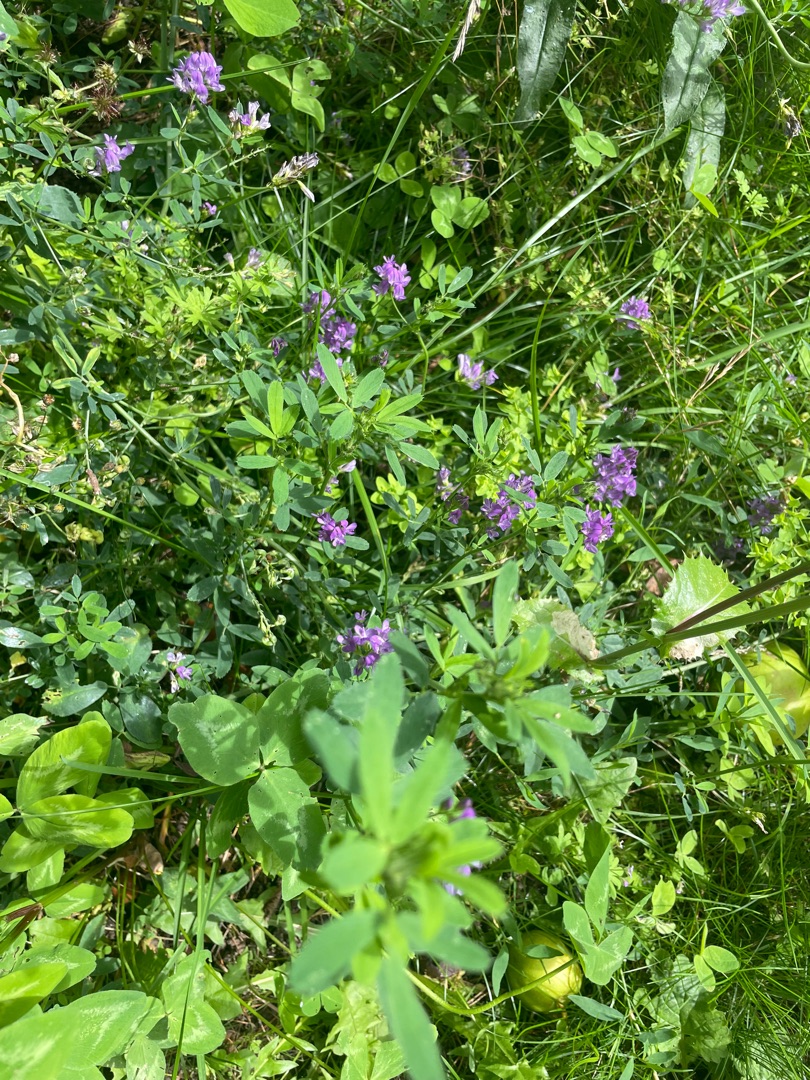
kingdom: Plantae
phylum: Tracheophyta
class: Magnoliopsida
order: Fabales
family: Fabaceae
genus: Medicago
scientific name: Medicago sativa
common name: Foderlucerne
